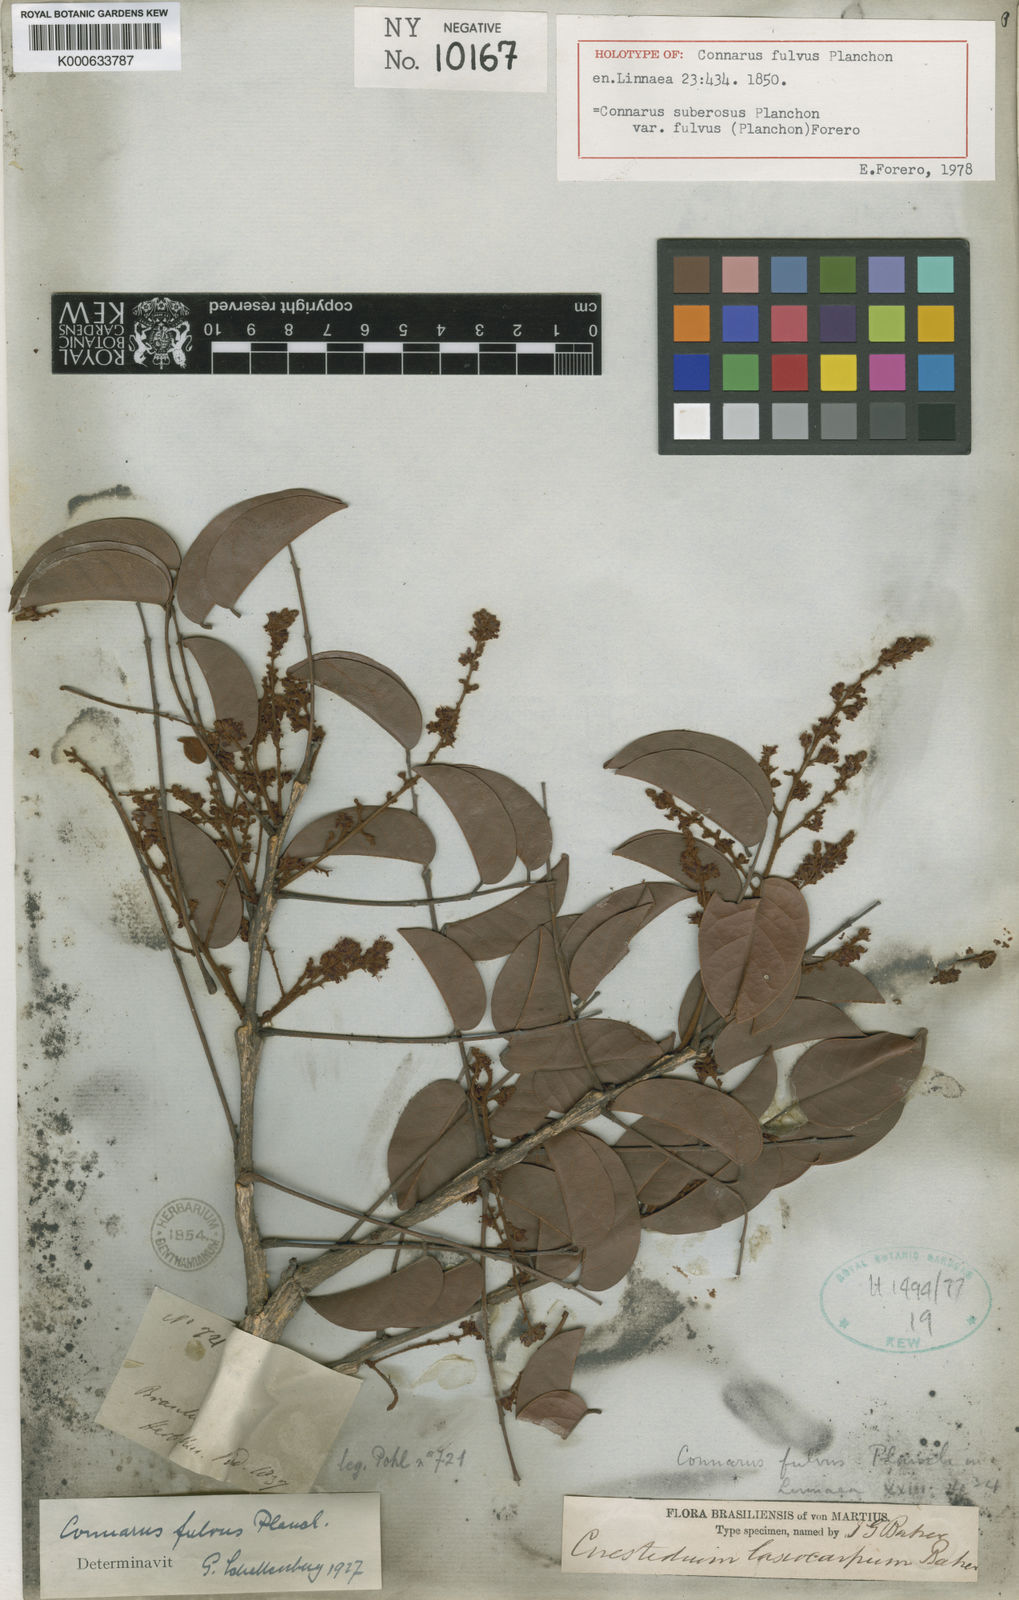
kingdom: Plantae
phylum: Tracheophyta
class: Magnoliopsida
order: Oxalidales
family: Connaraceae
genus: Connarus
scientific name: Connarus suberosus
